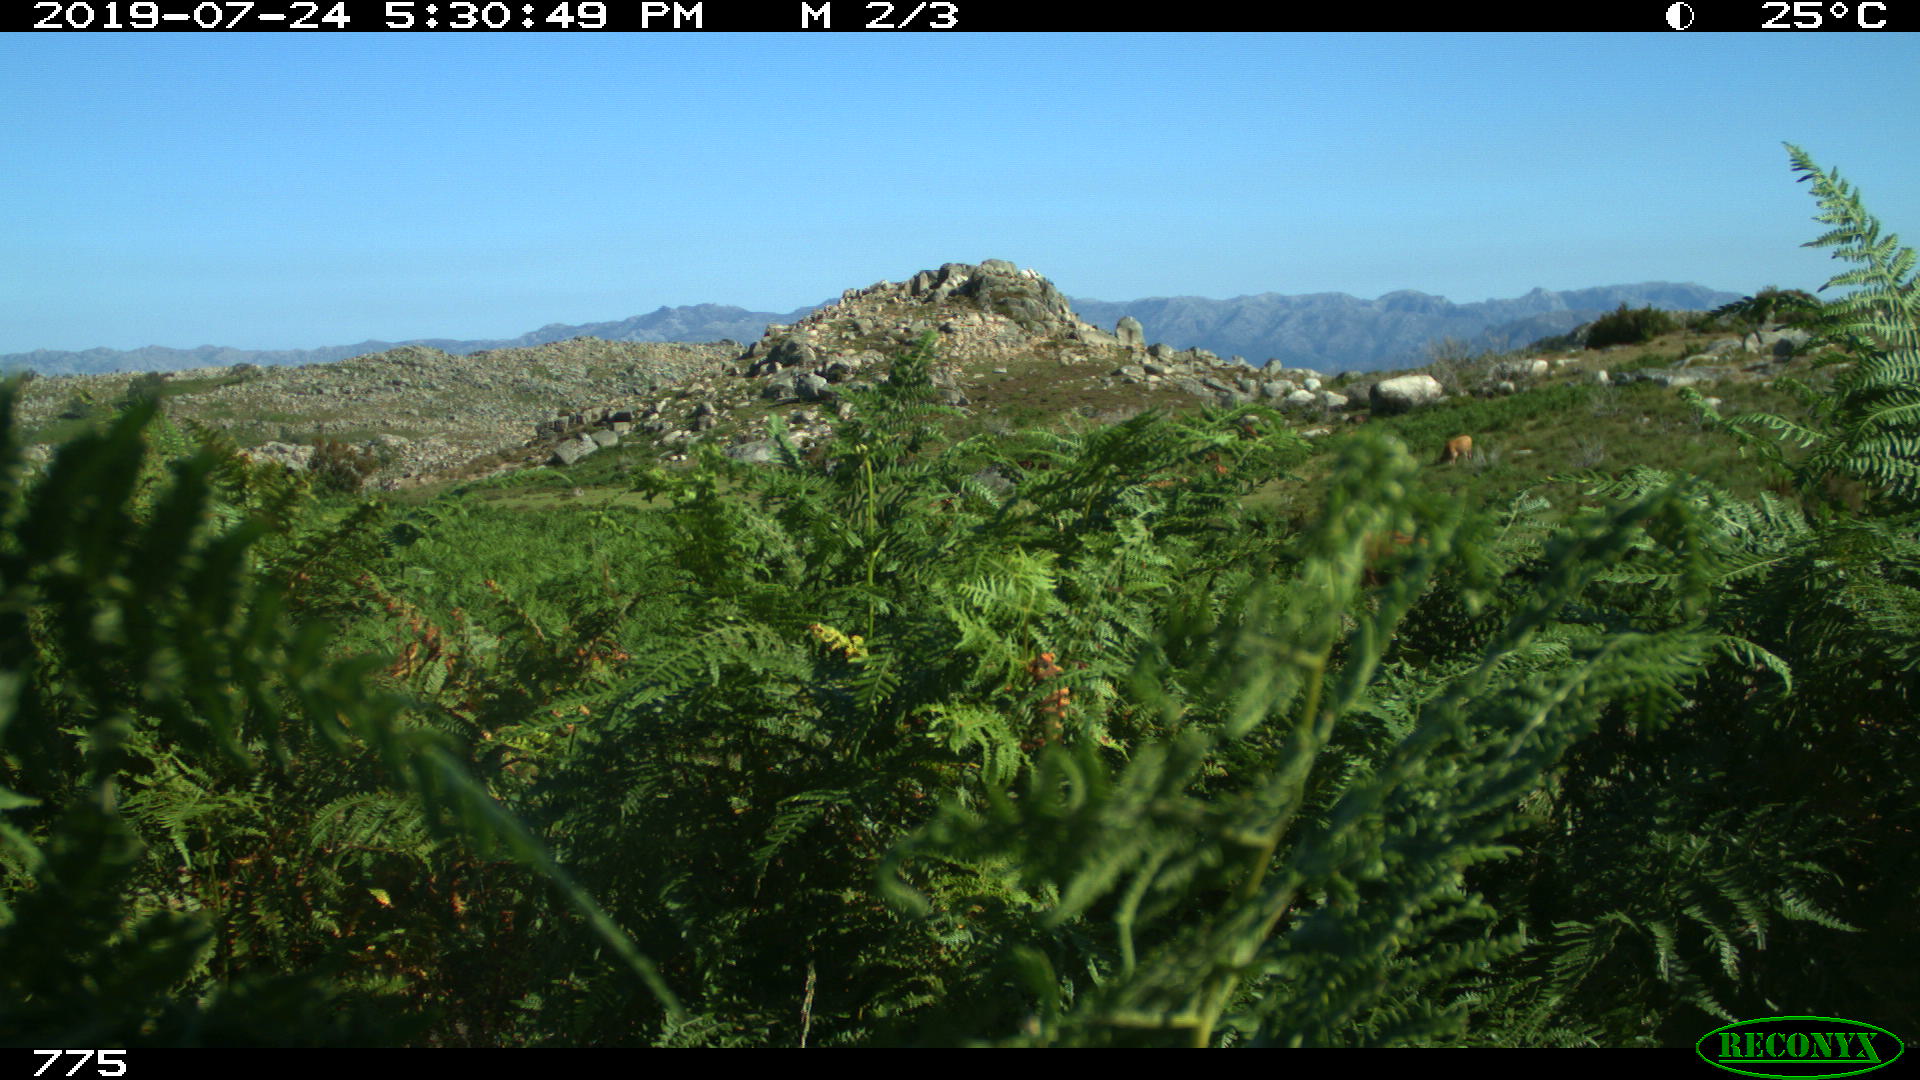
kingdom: Animalia
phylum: Chordata
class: Mammalia
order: Artiodactyla
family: Bovidae
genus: Bos
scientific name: Bos taurus
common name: Domesticated cattle
